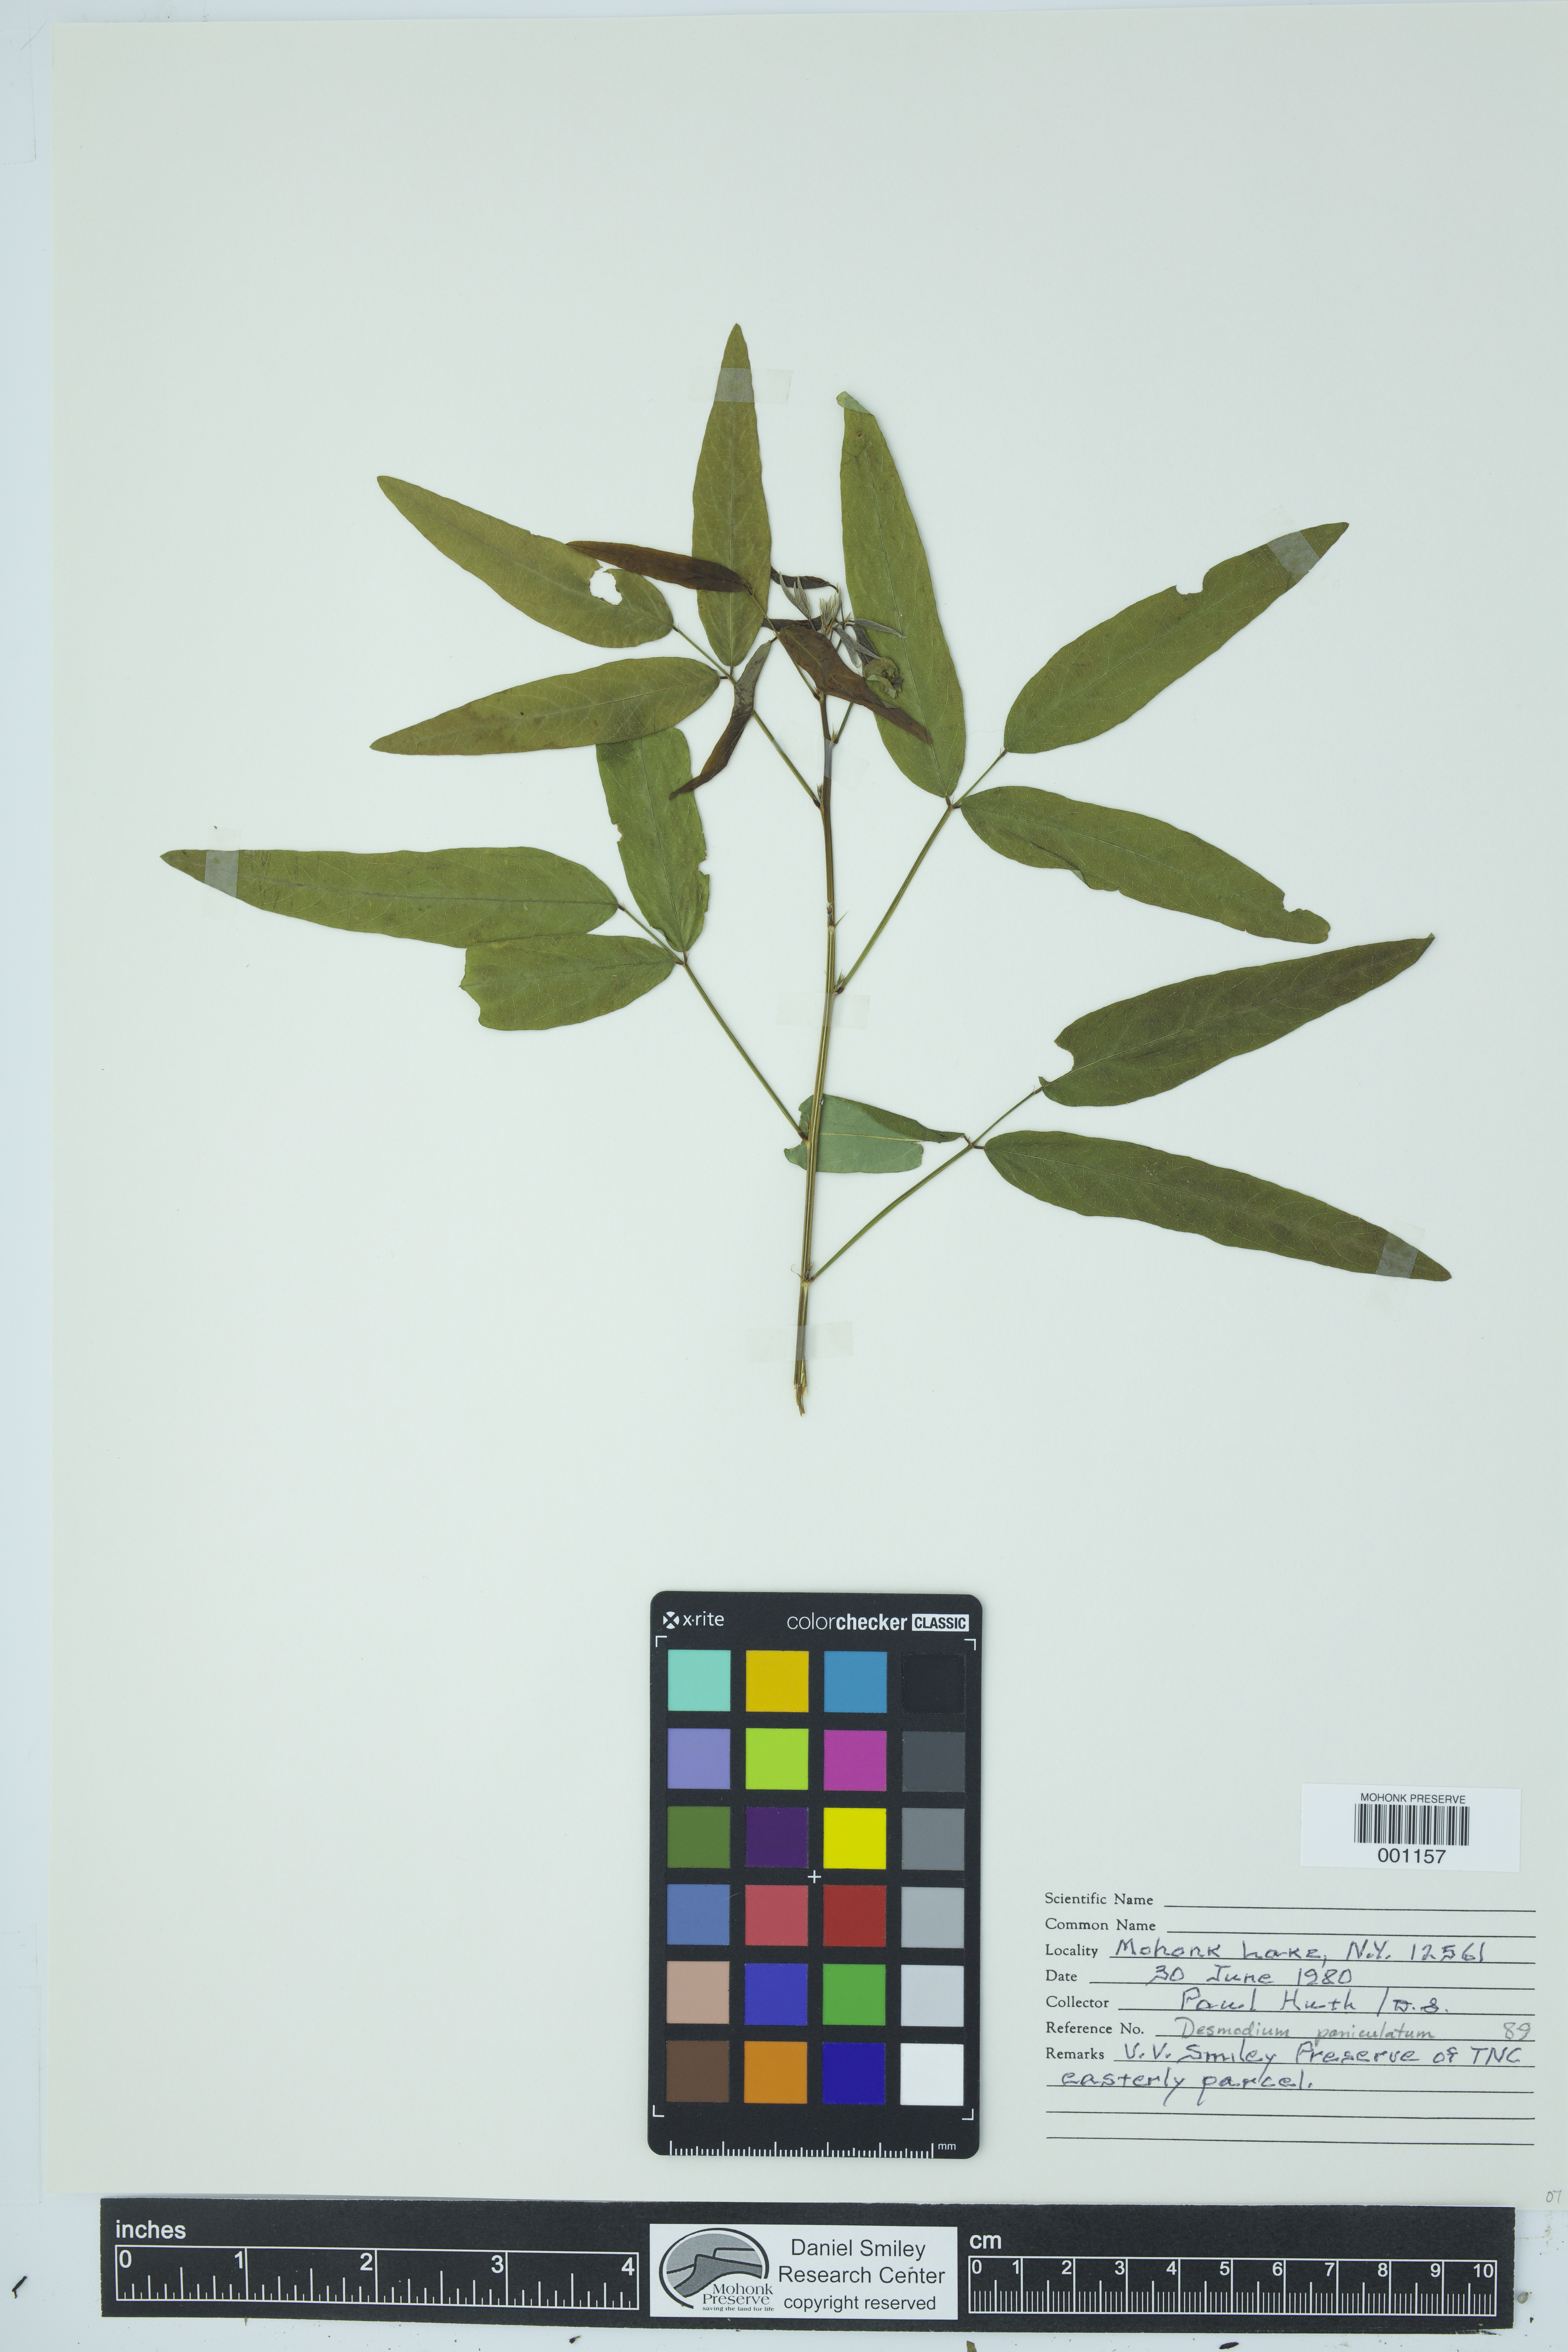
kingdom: Plantae
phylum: Tracheophyta
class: Magnoliopsida
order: Fabales
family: Fabaceae
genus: Desmodium
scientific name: Desmodium paniculatum
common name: Panicled tick-clover
